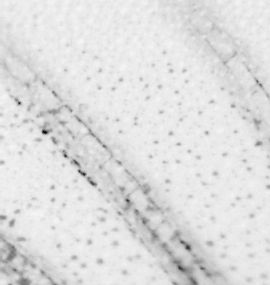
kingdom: Animalia
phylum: Chordata
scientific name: Chordata
